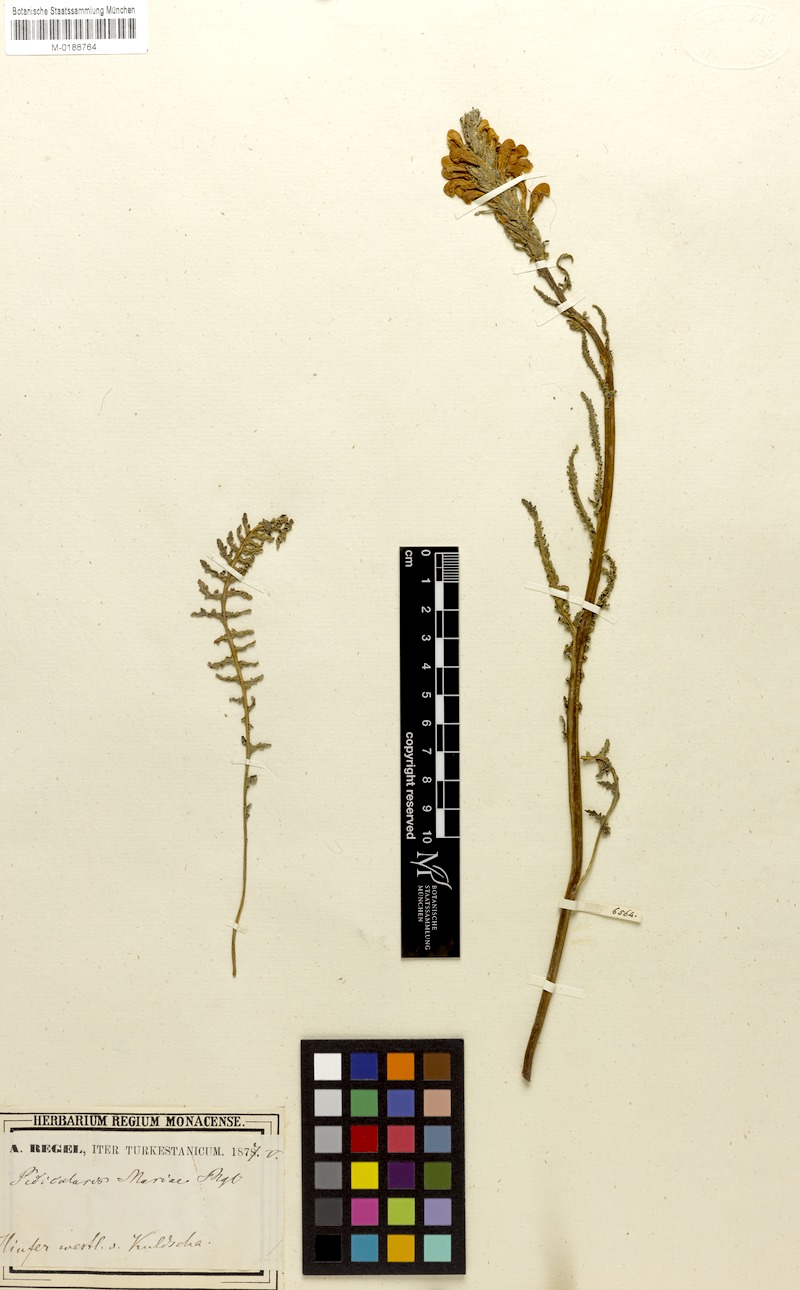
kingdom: Plantae
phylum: Tracheophyta
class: Magnoliopsida
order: Lamiales
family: Orobanchaceae
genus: Pedicularis
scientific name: Pedicularis mariae
